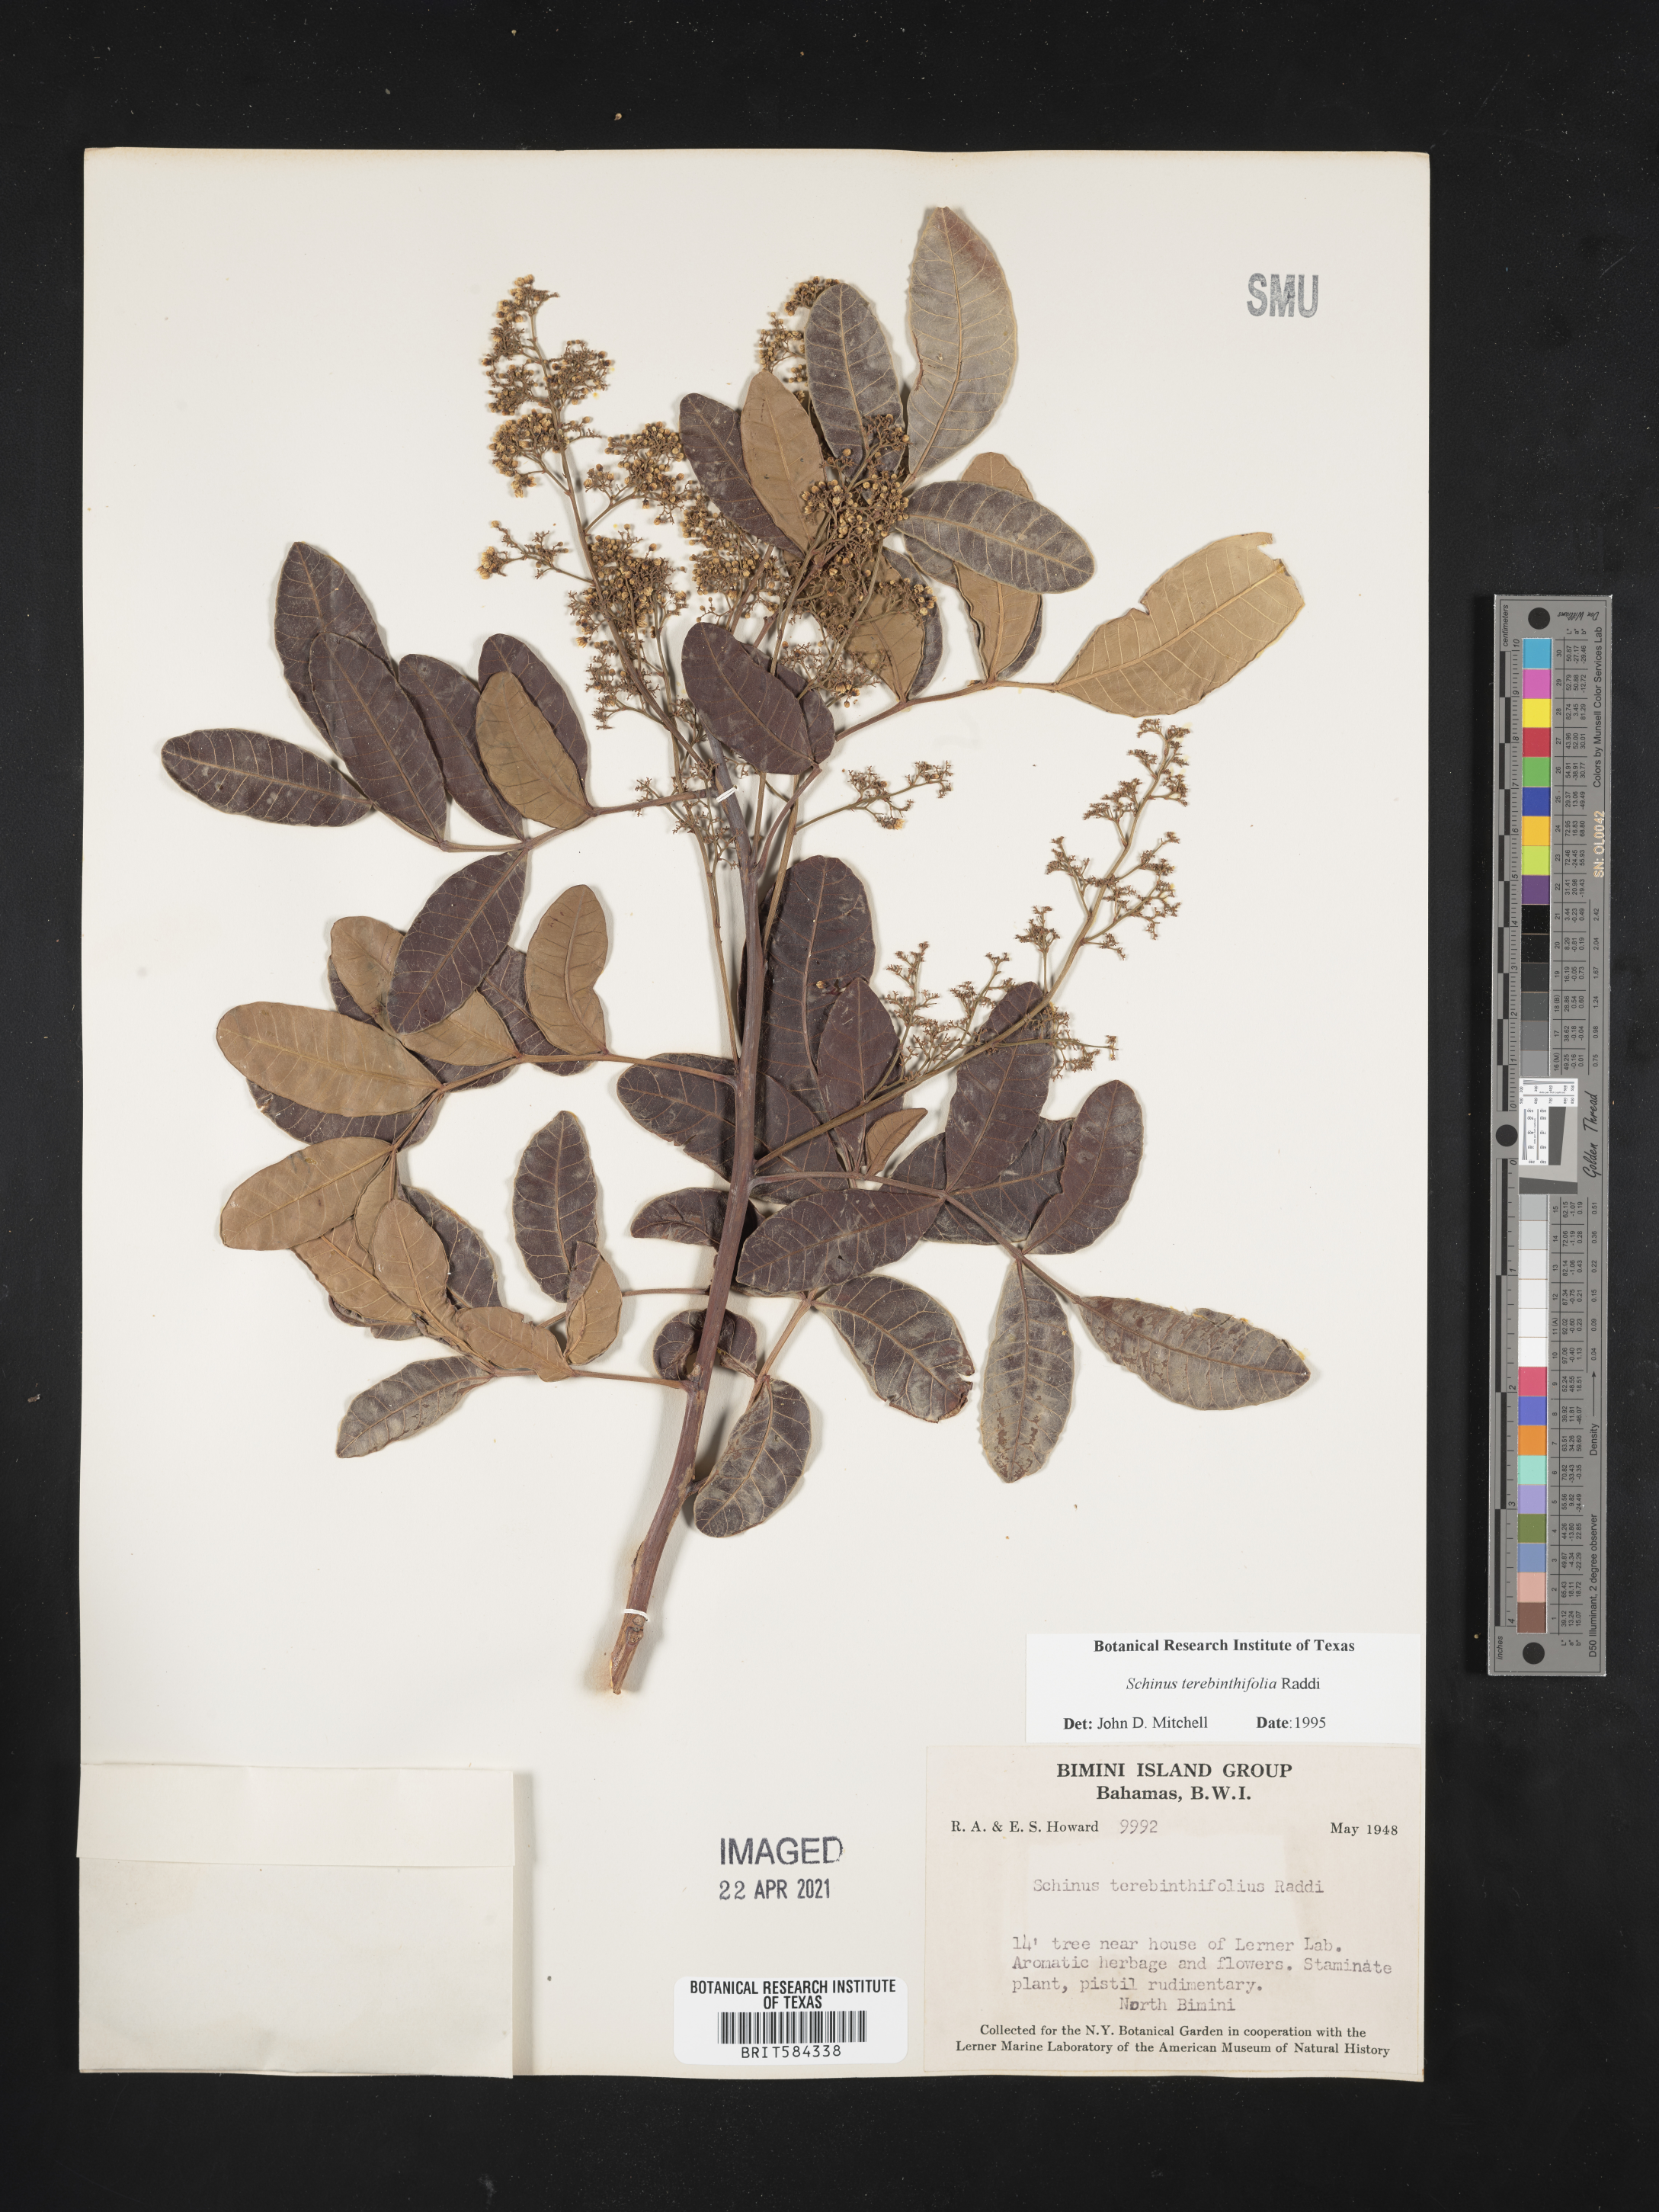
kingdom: Plantae
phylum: Tracheophyta
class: Magnoliopsida
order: Sapindales
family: Anacardiaceae
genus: Schinus
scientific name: Schinus terebinthifolia
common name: Brazilian peppertree
